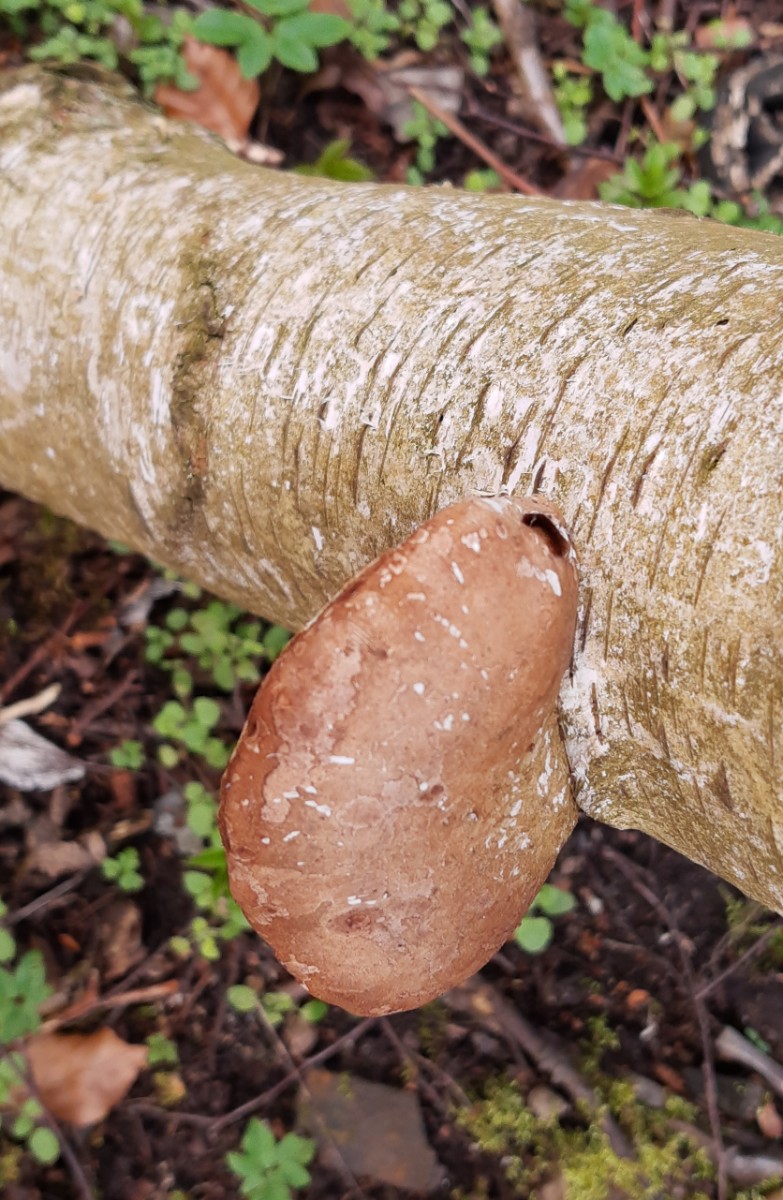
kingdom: Fungi
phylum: Basidiomycota
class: Agaricomycetes
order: Polyporales
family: Fomitopsidaceae
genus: Fomitopsis
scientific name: Fomitopsis betulina
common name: birkeporesvamp
